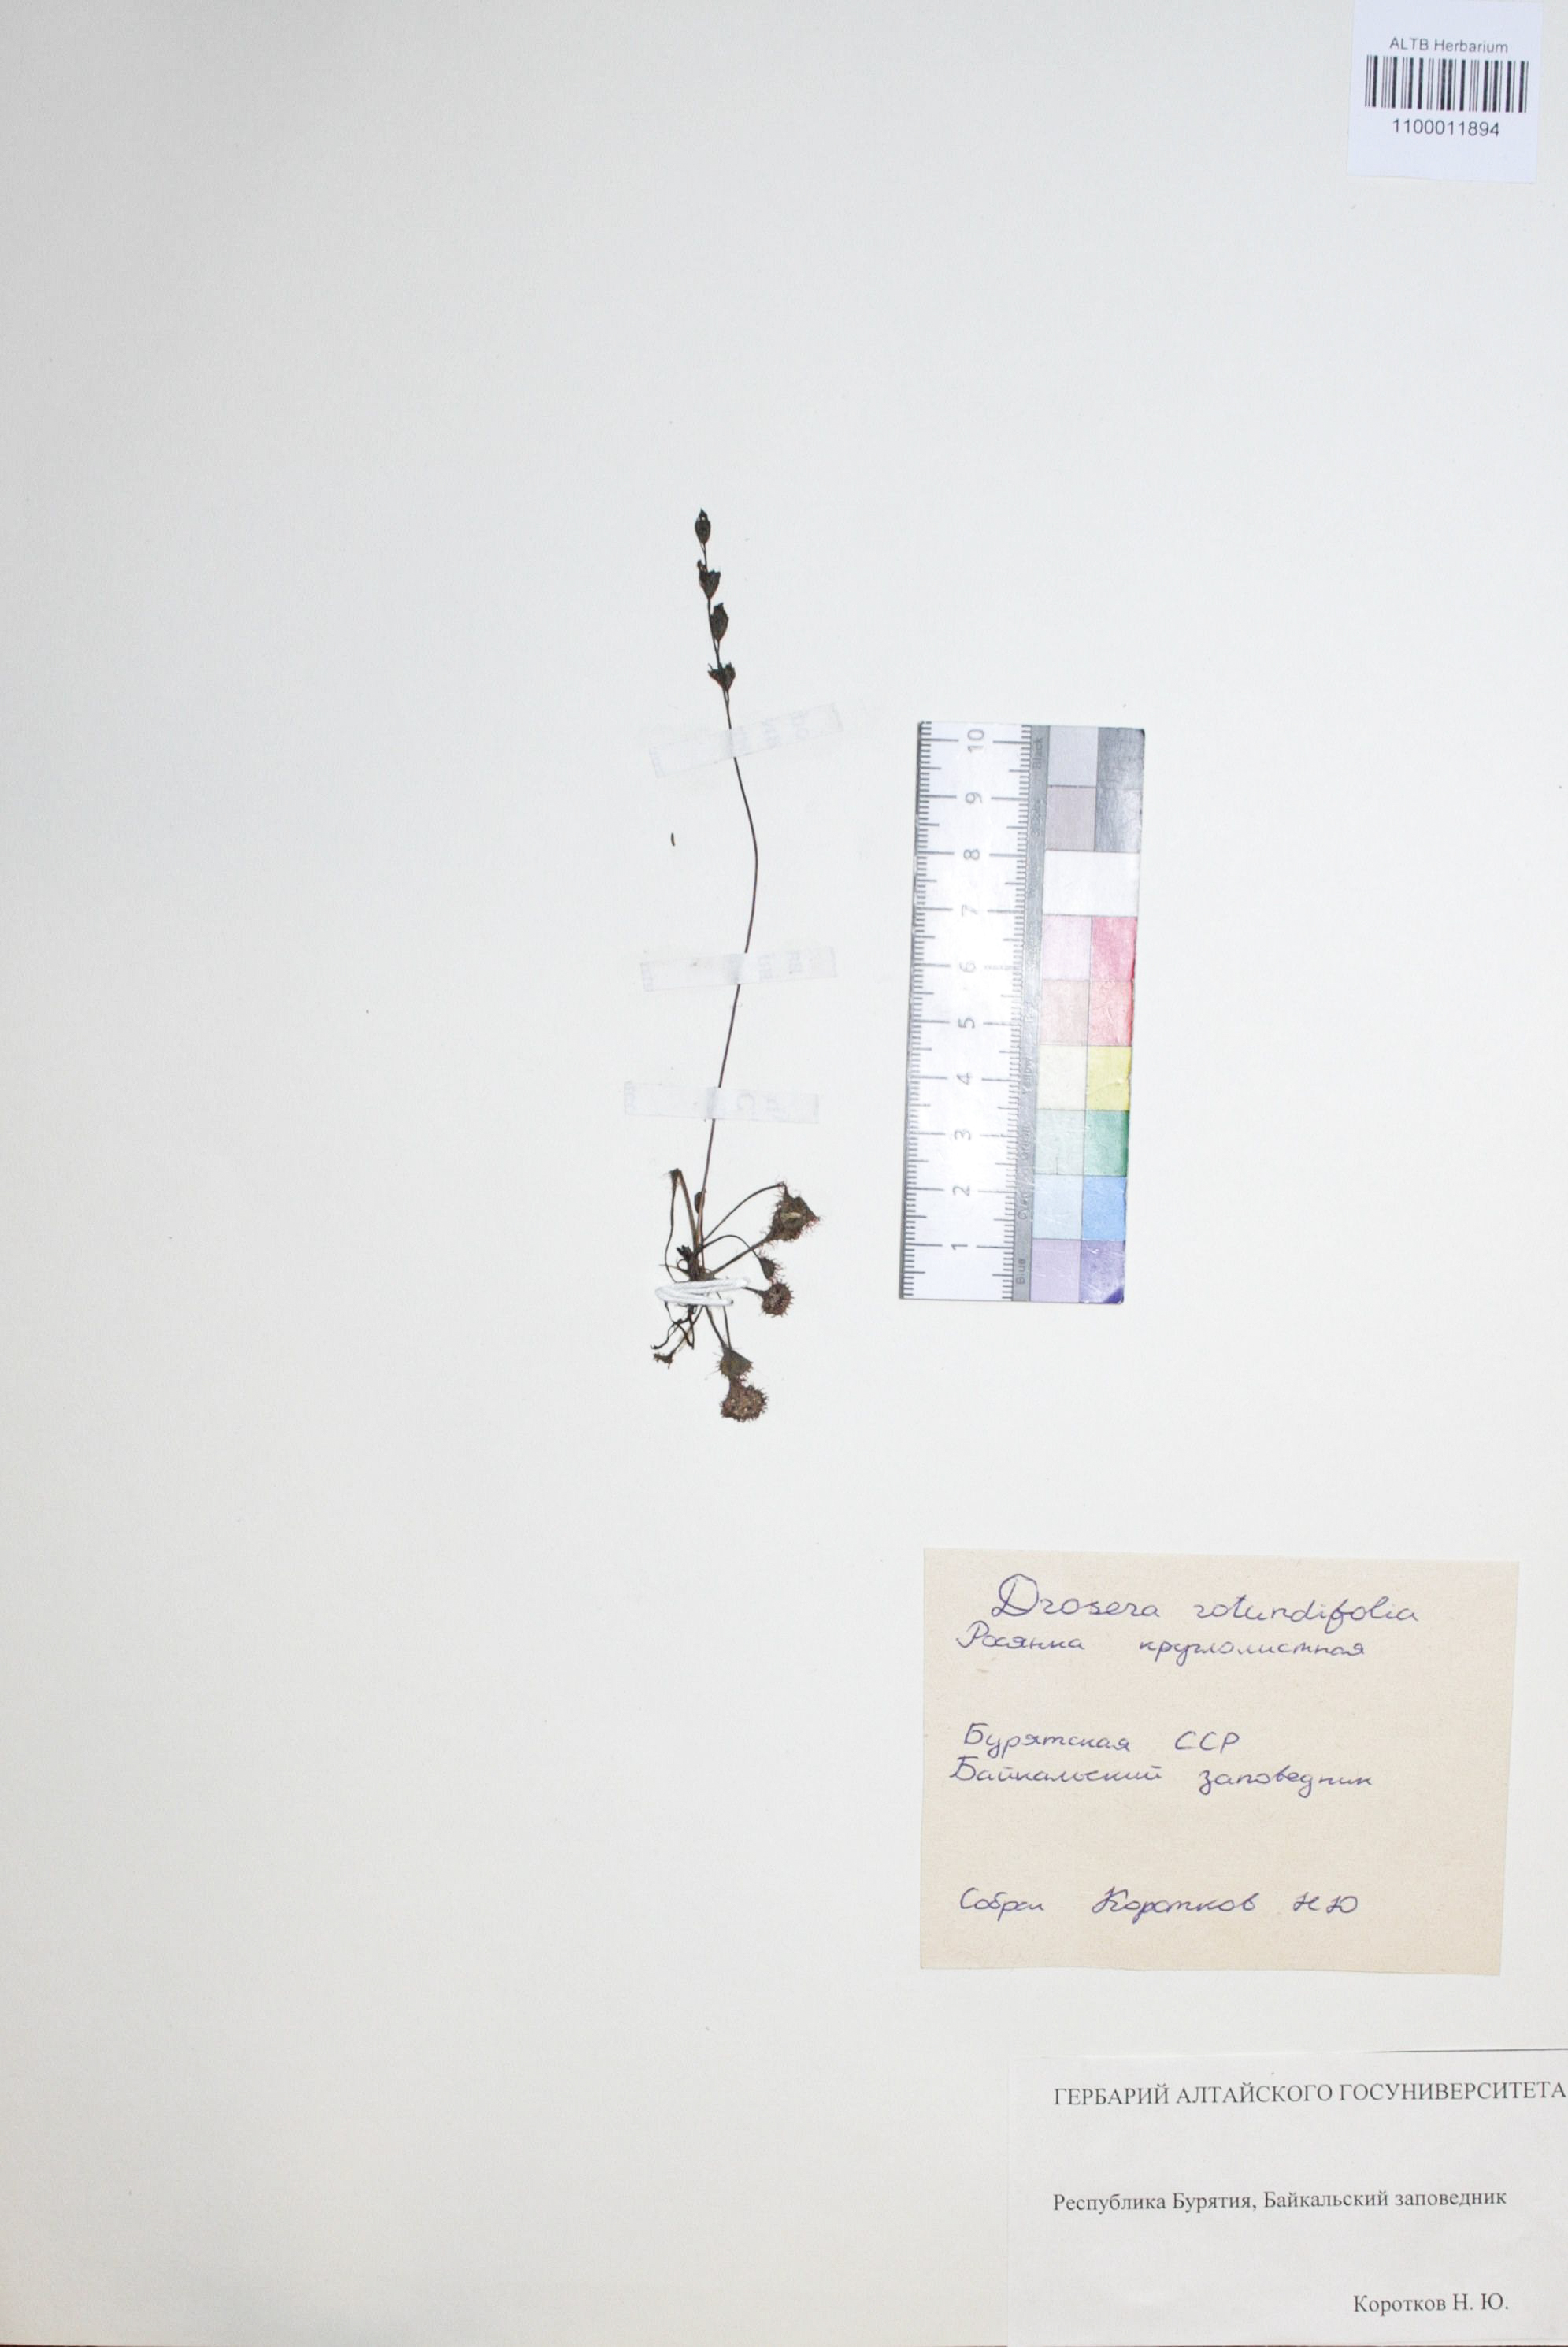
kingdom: Plantae
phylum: Tracheophyta
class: Magnoliopsida
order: Caryophyllales
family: Droseraceae
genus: Drosera
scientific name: Drosera rotundifolia
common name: Round-leaved sundew
